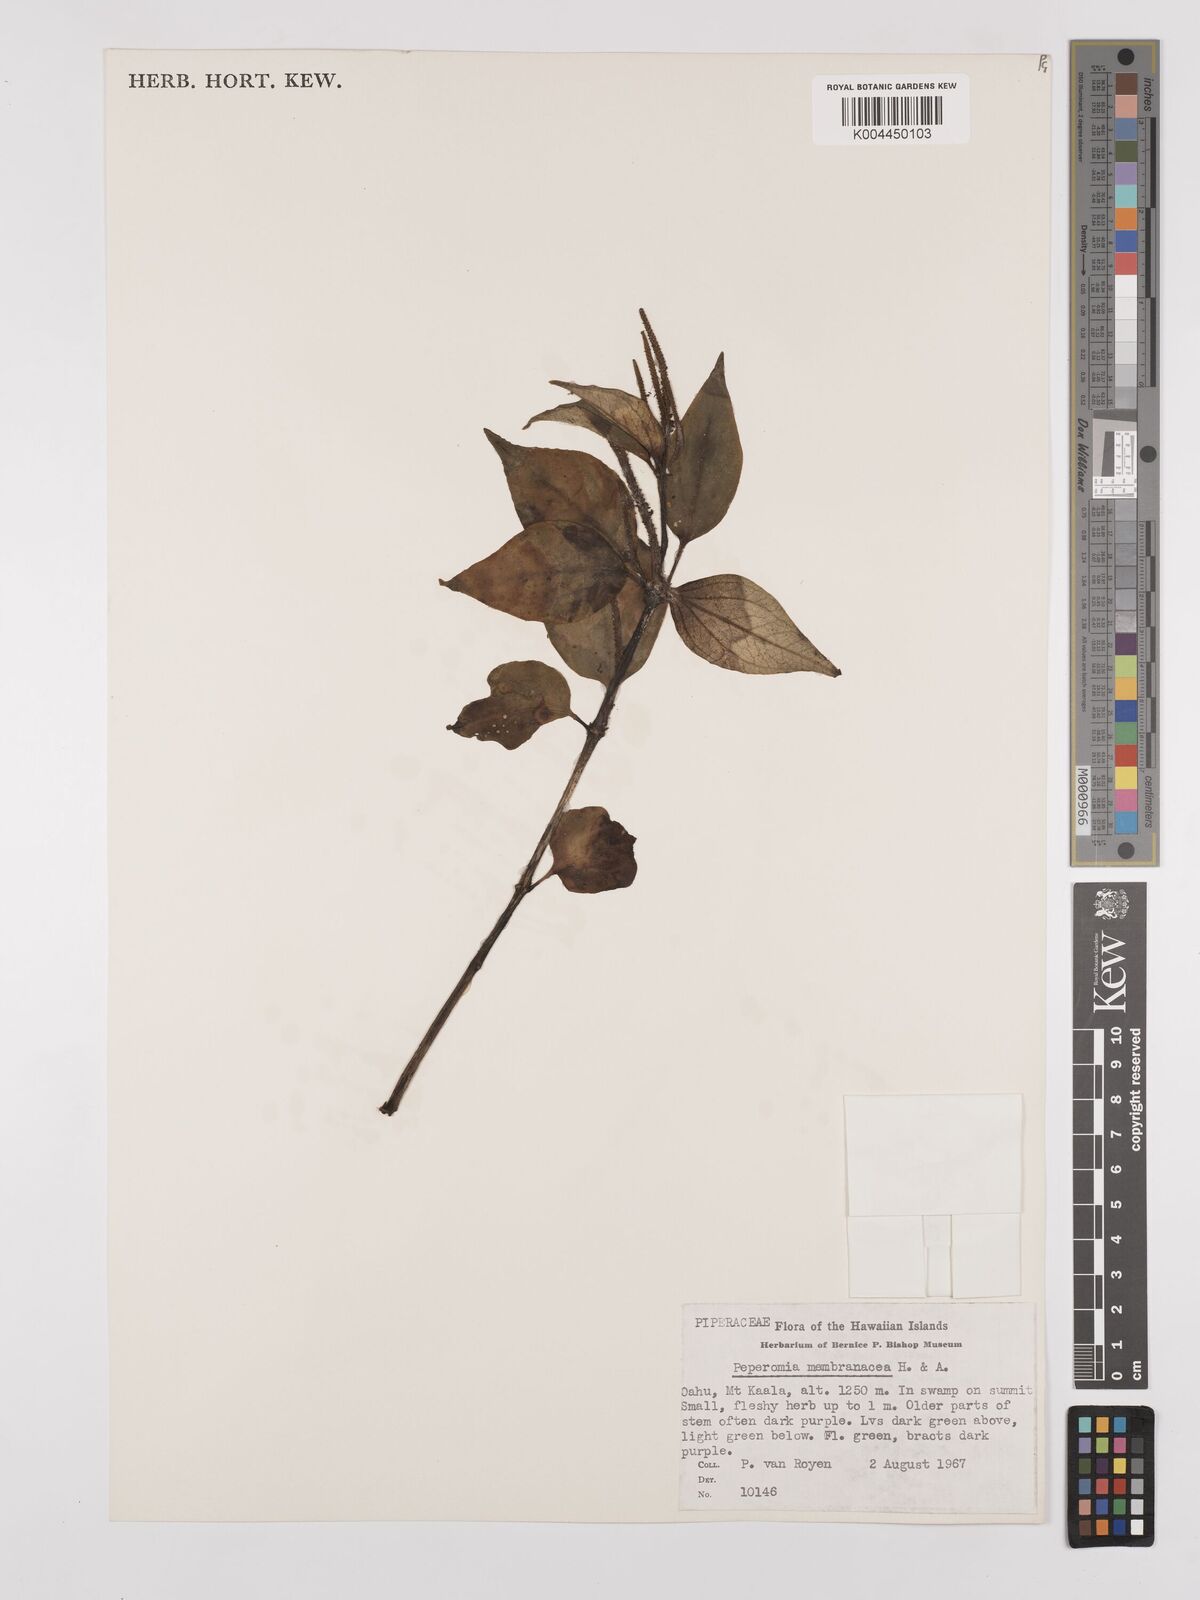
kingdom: Plantae
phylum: Tracheophyta
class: Magnoliopsida
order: Piperales
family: Piperaceae
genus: Peperomia
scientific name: Peperomia membranacea
